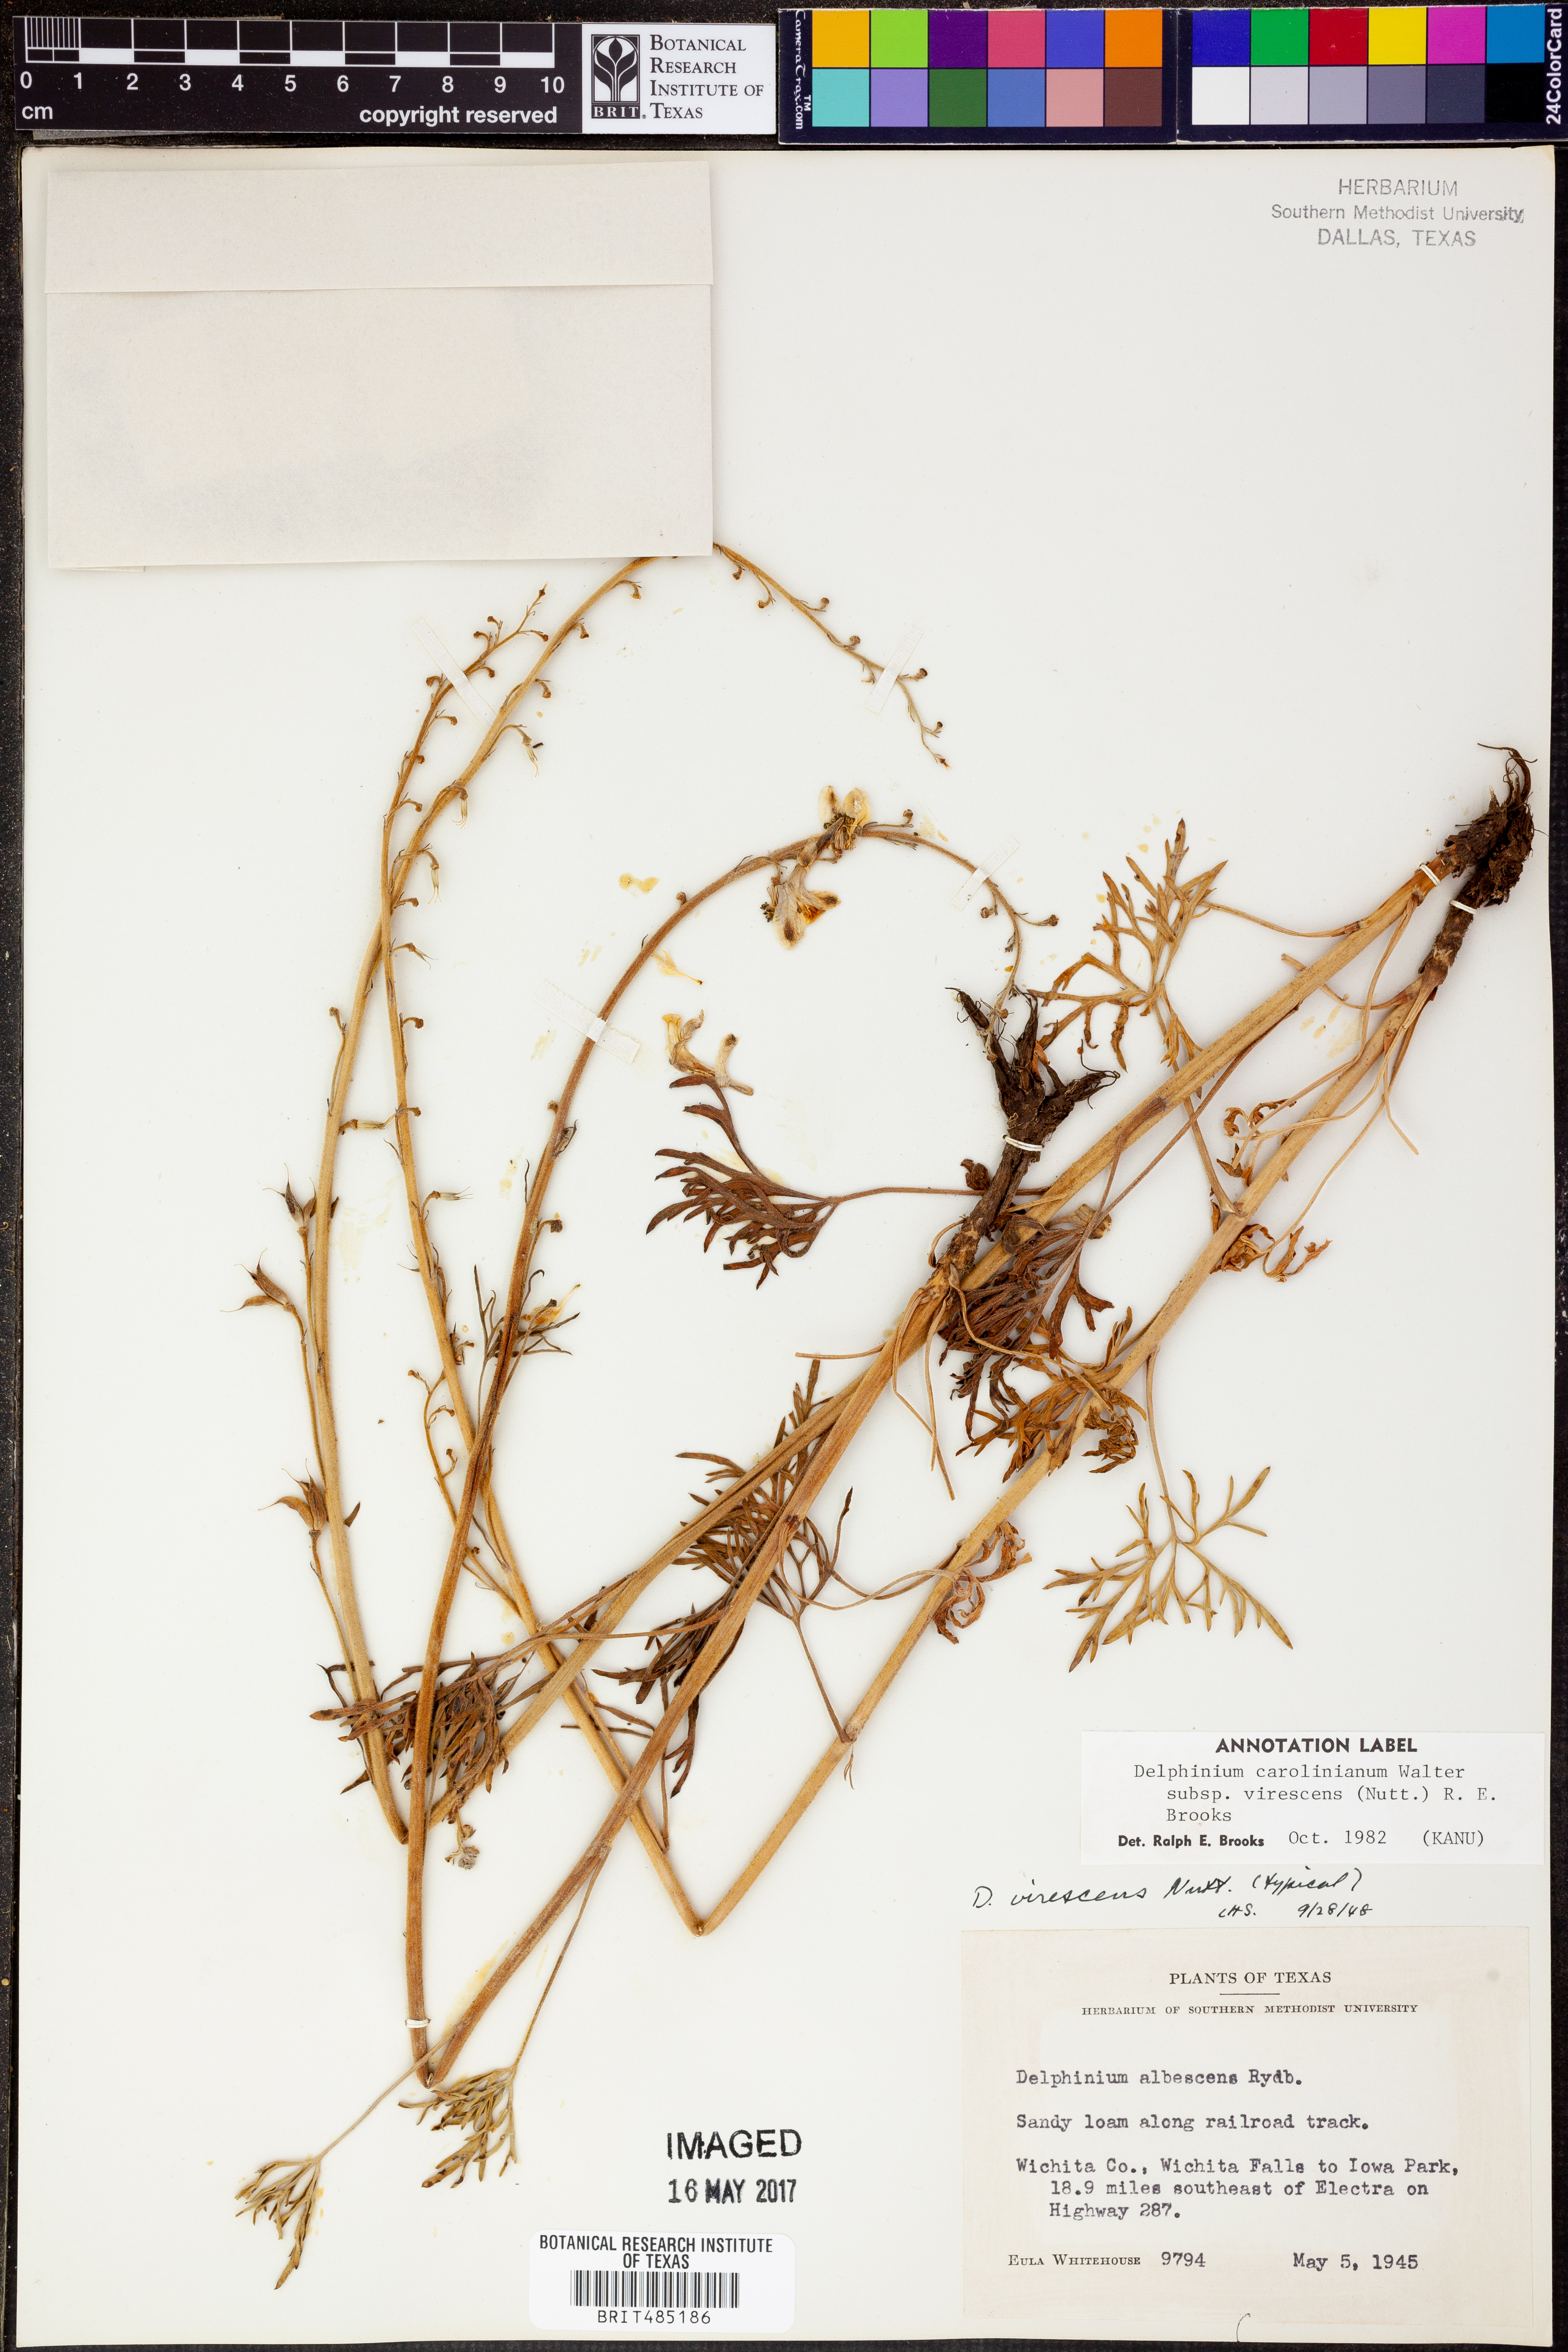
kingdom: Plantae
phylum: Tracheophyta
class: Magnoliopsida
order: Ranunculales
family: Ranunculaceae
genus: Delphinium
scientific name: Delphinium carolinianum
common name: Carolina larkspur
